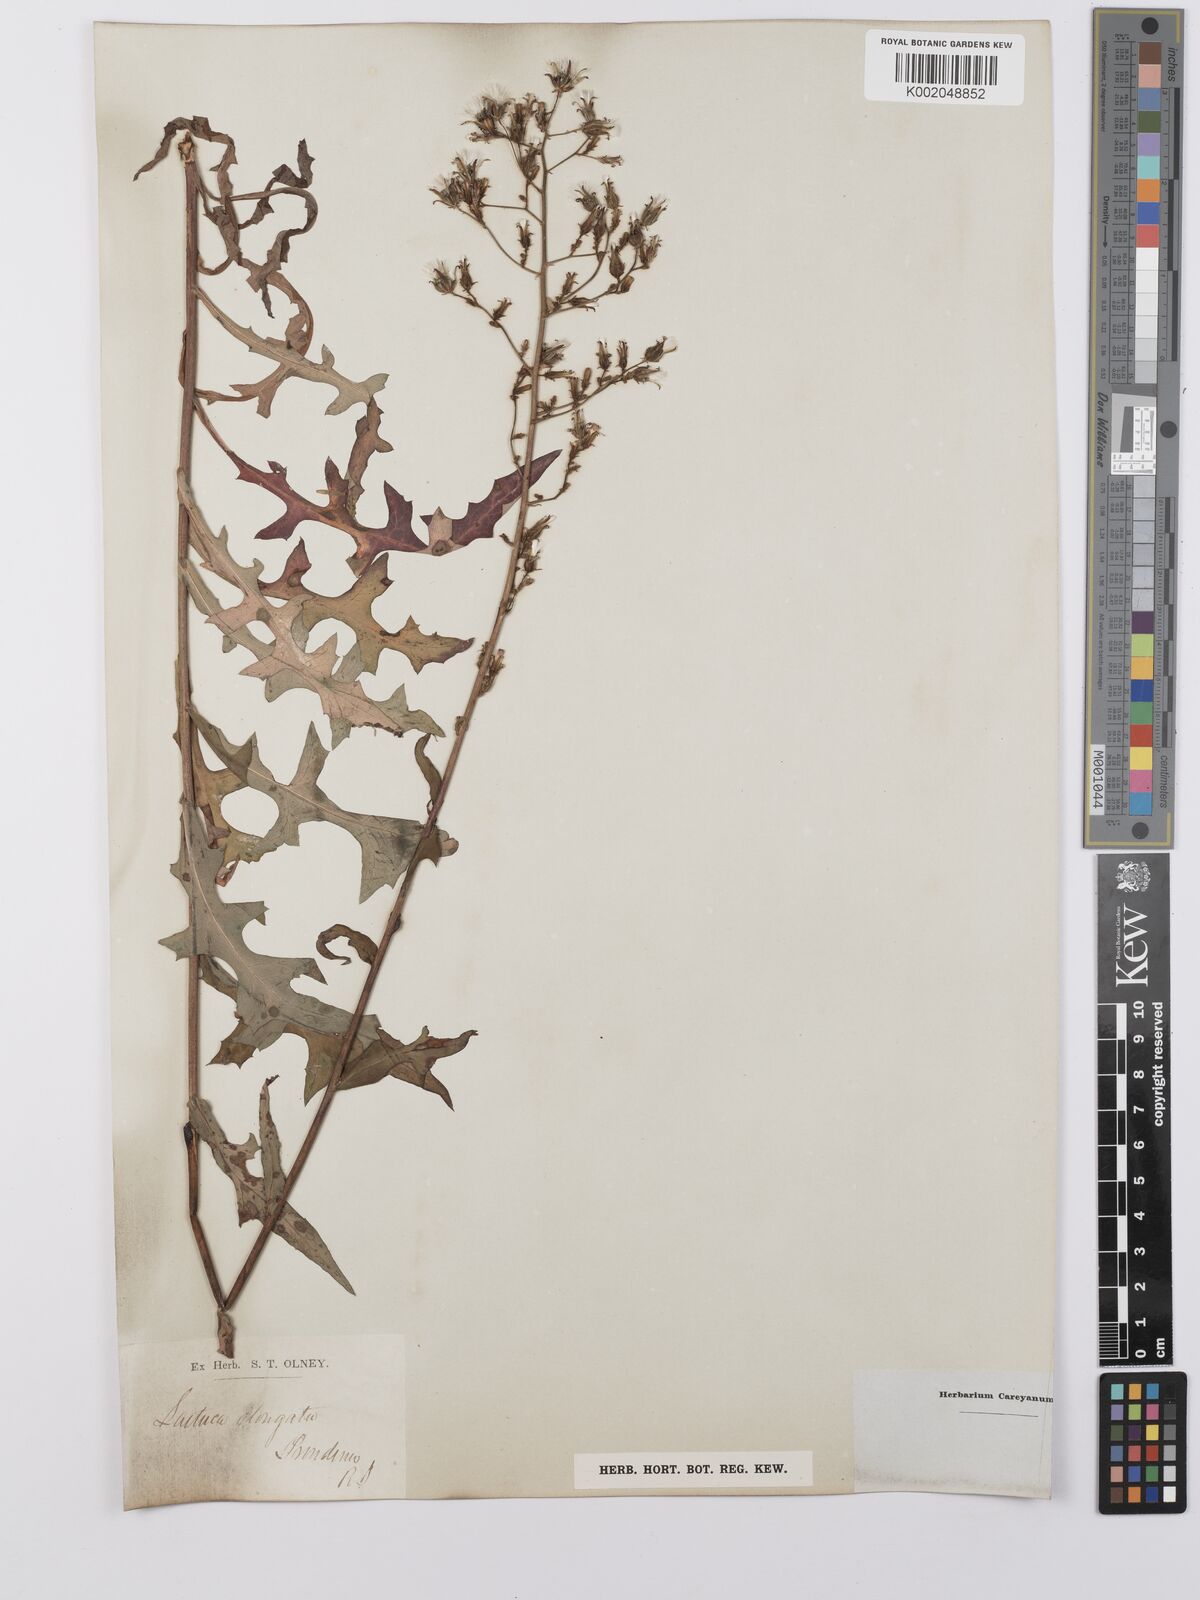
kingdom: Plantae
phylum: Tracheophyta
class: Magnoliopsida
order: Asterales
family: Asteraceae
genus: Lactuca
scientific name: Lactuca canadensis
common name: Canada lettuce
